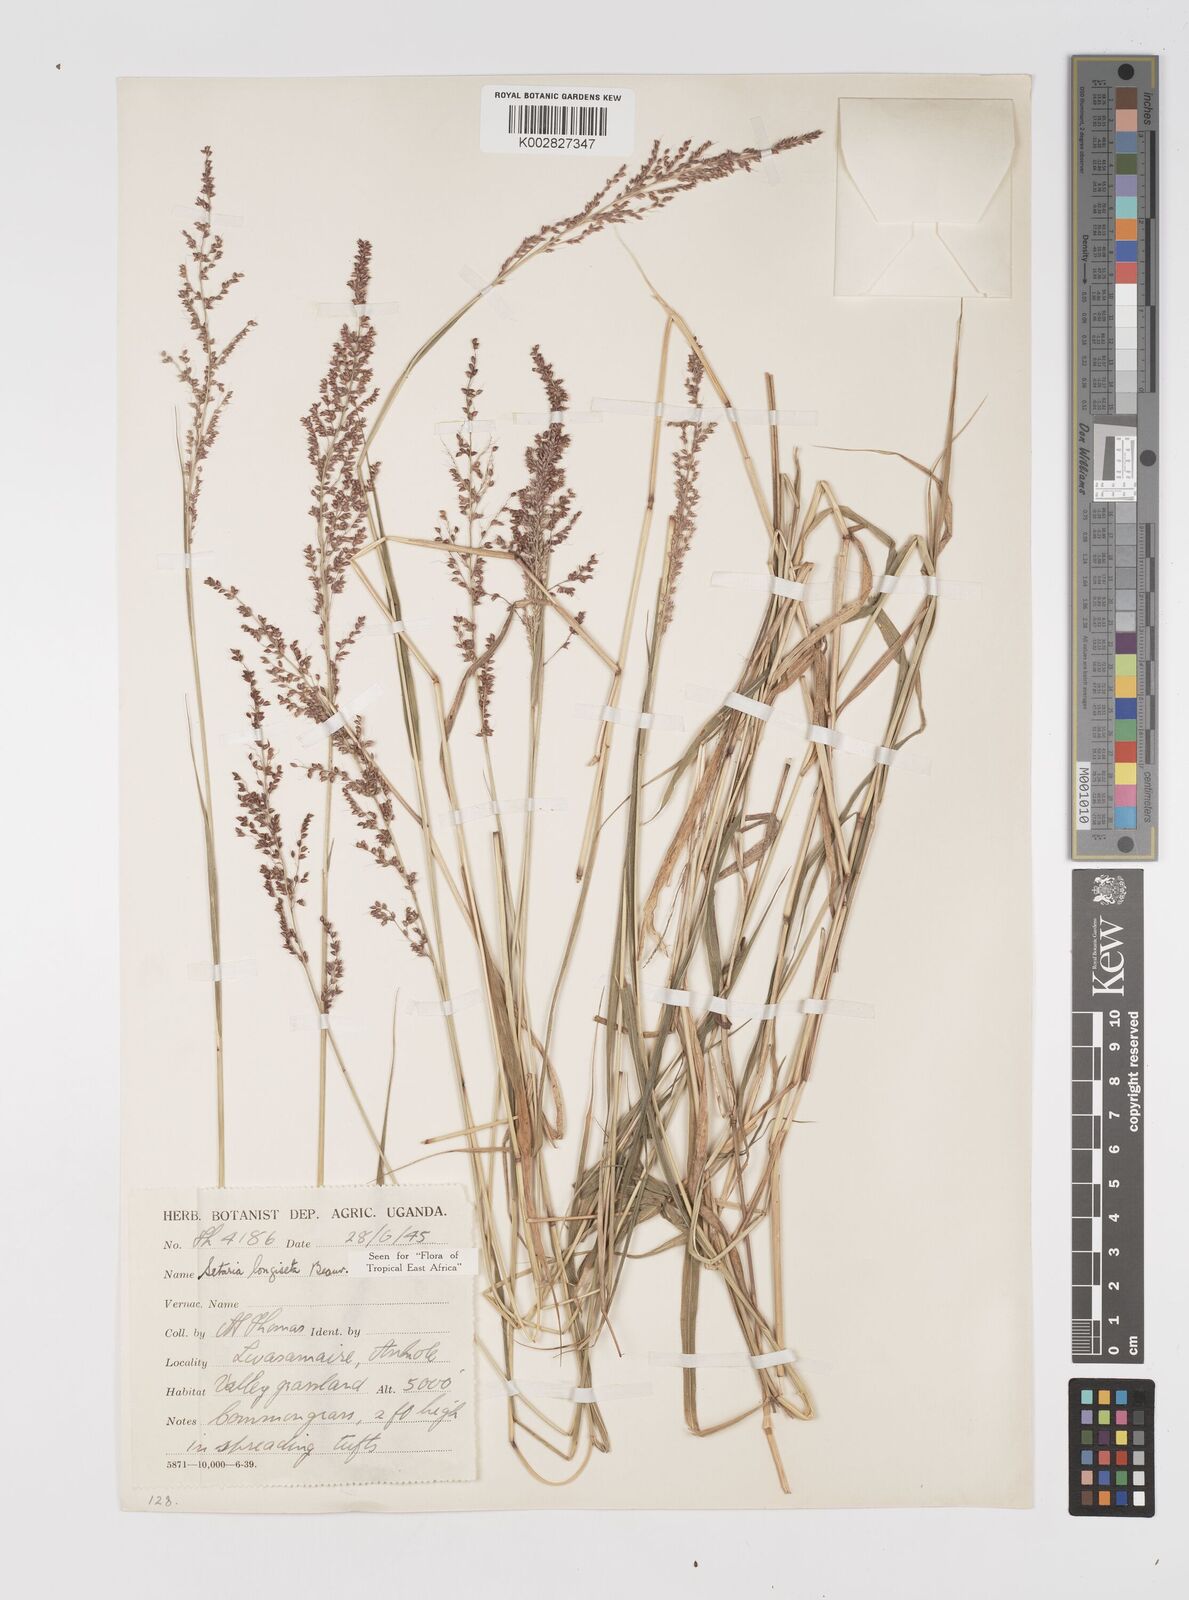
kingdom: Plantae
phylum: Tracheophyta
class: Liliopsida
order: Poales
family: Poaceae
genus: Setaria
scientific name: Setaria longiseta
